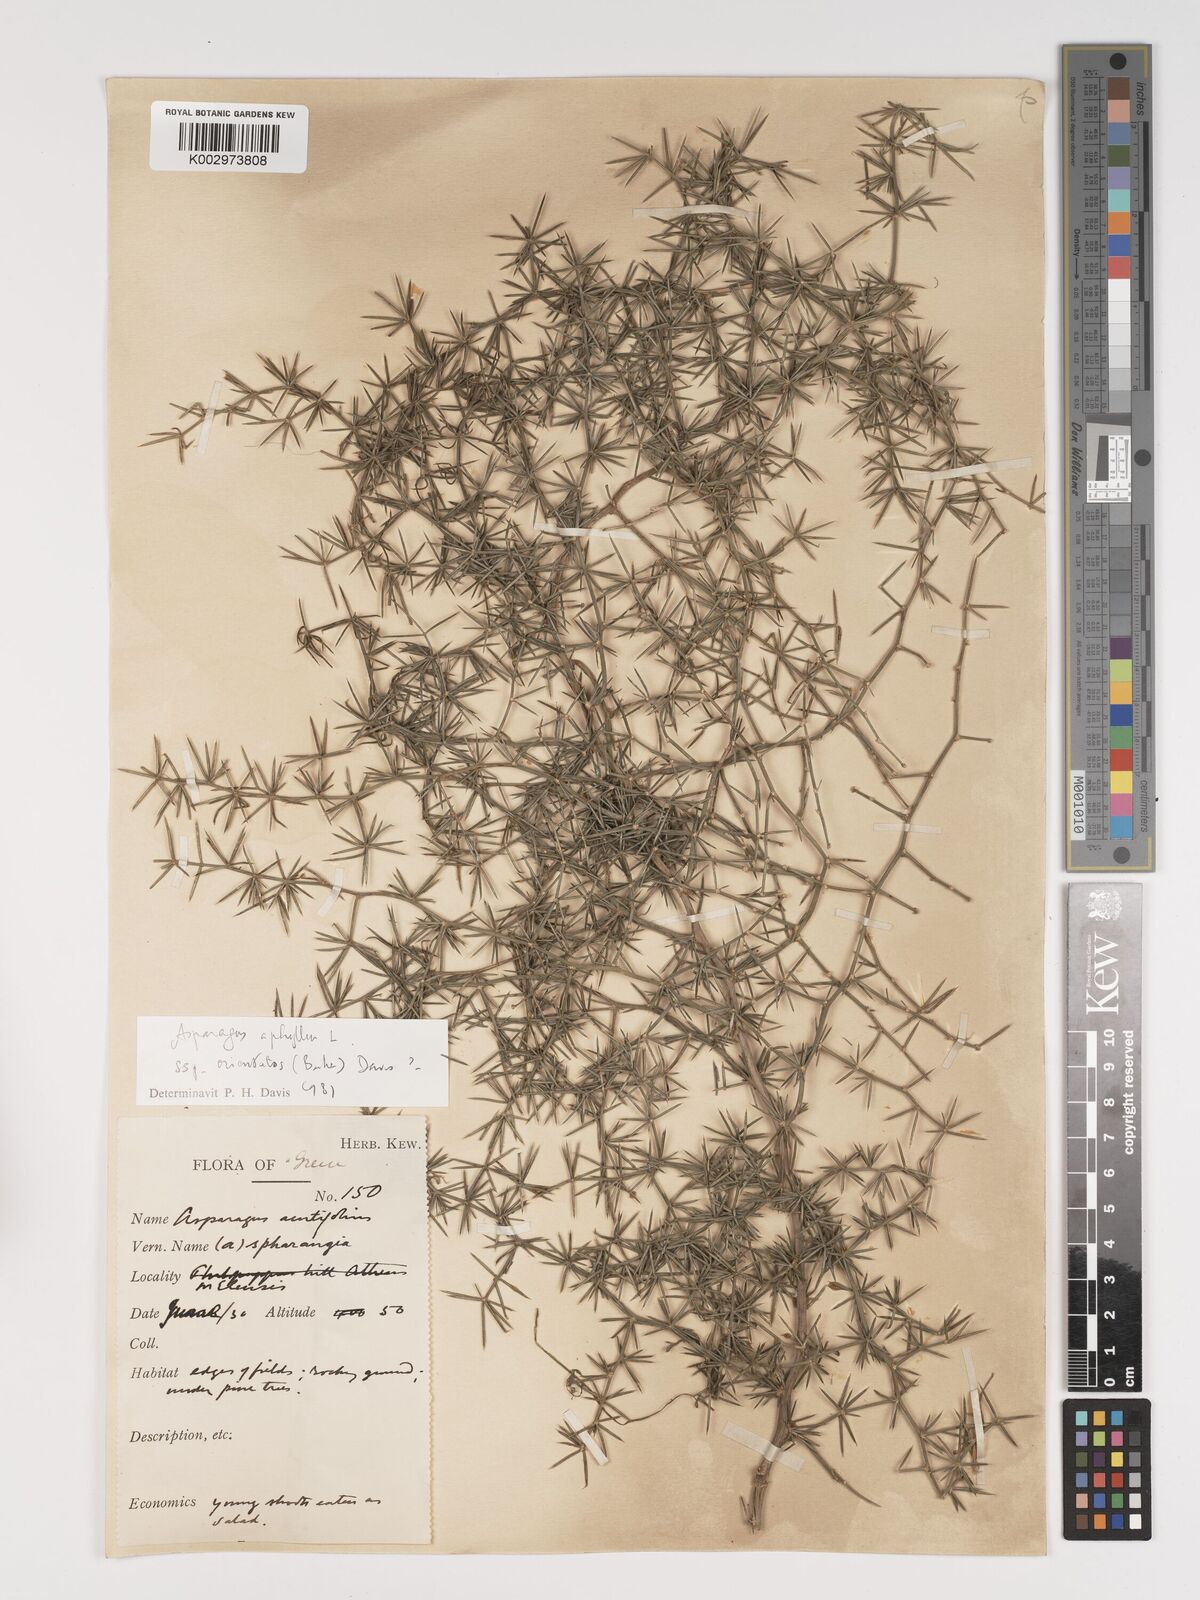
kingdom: Plantae
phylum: Tracheophyta
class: Liliopsida
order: Asparagales
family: Asparagaceae
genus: Asparagus
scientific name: Asparagus aphyllus
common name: Mediterranean asparagus
